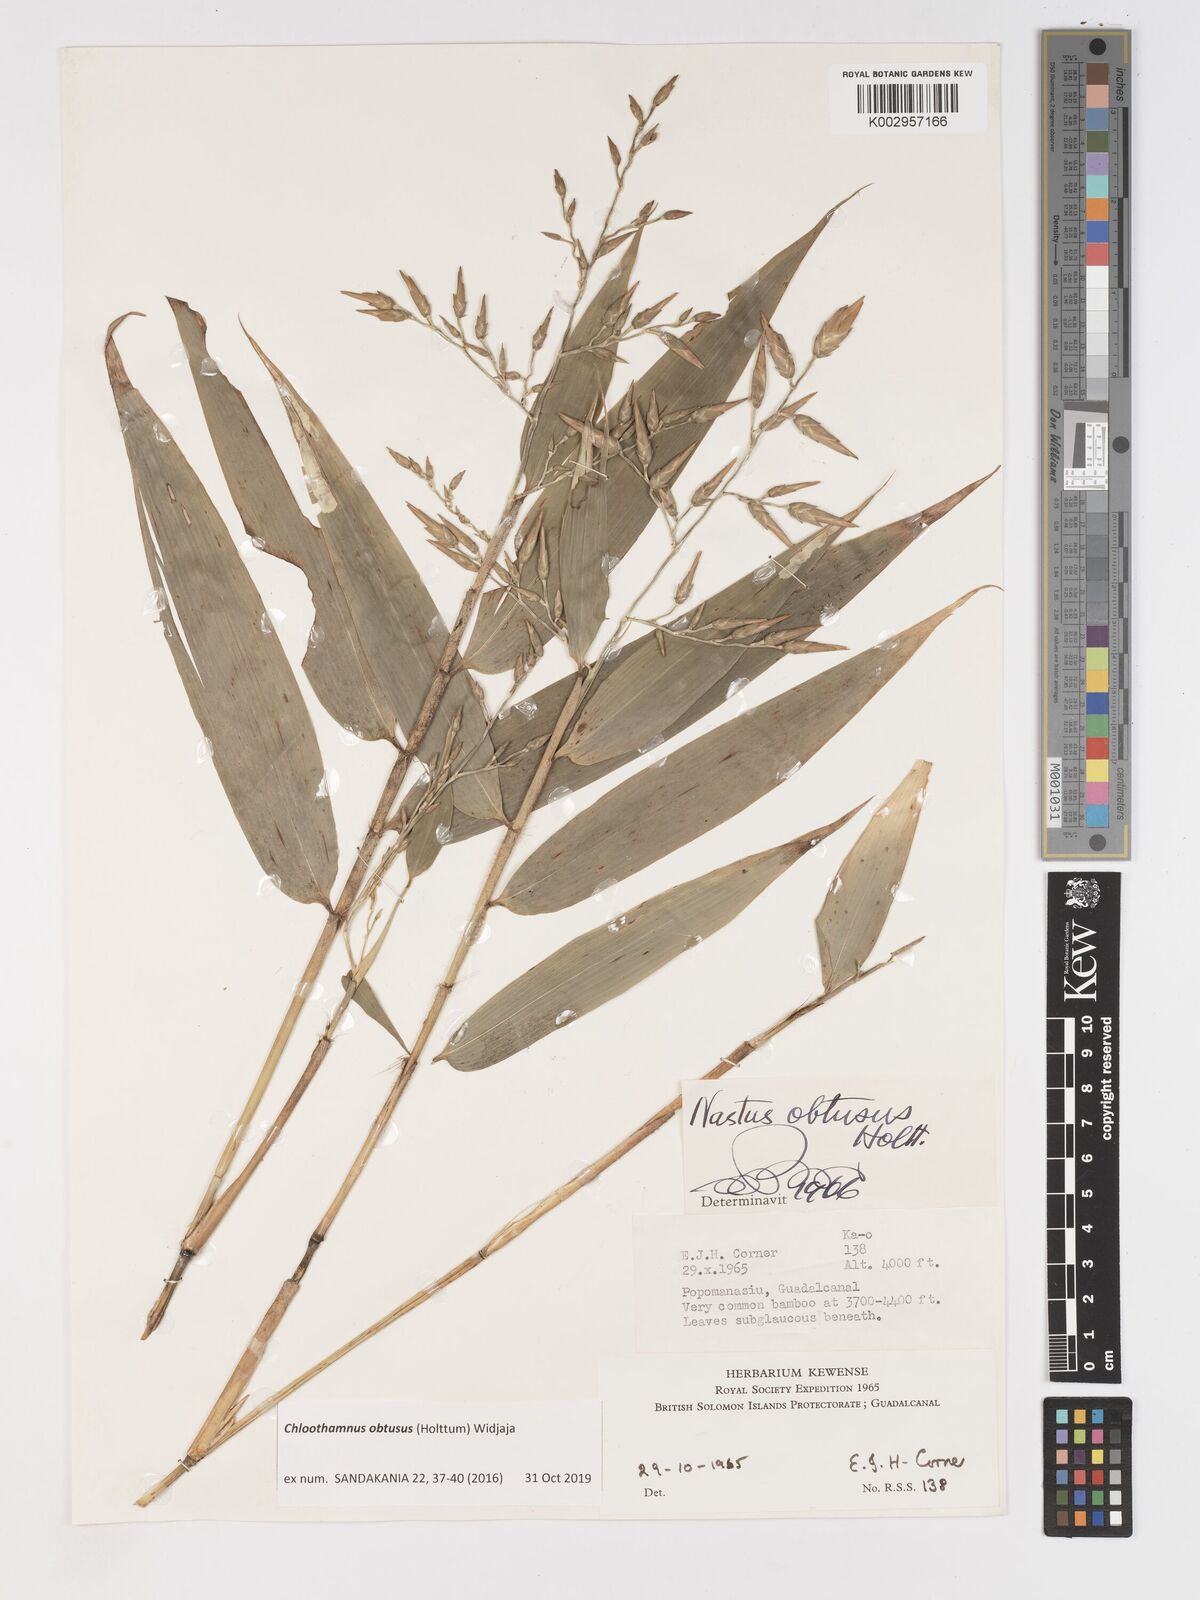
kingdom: Plantae
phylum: Tracheophyta
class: Liliopsida
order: Poales
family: Poaceae
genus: Chloothamnus
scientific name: Chloothamnus
